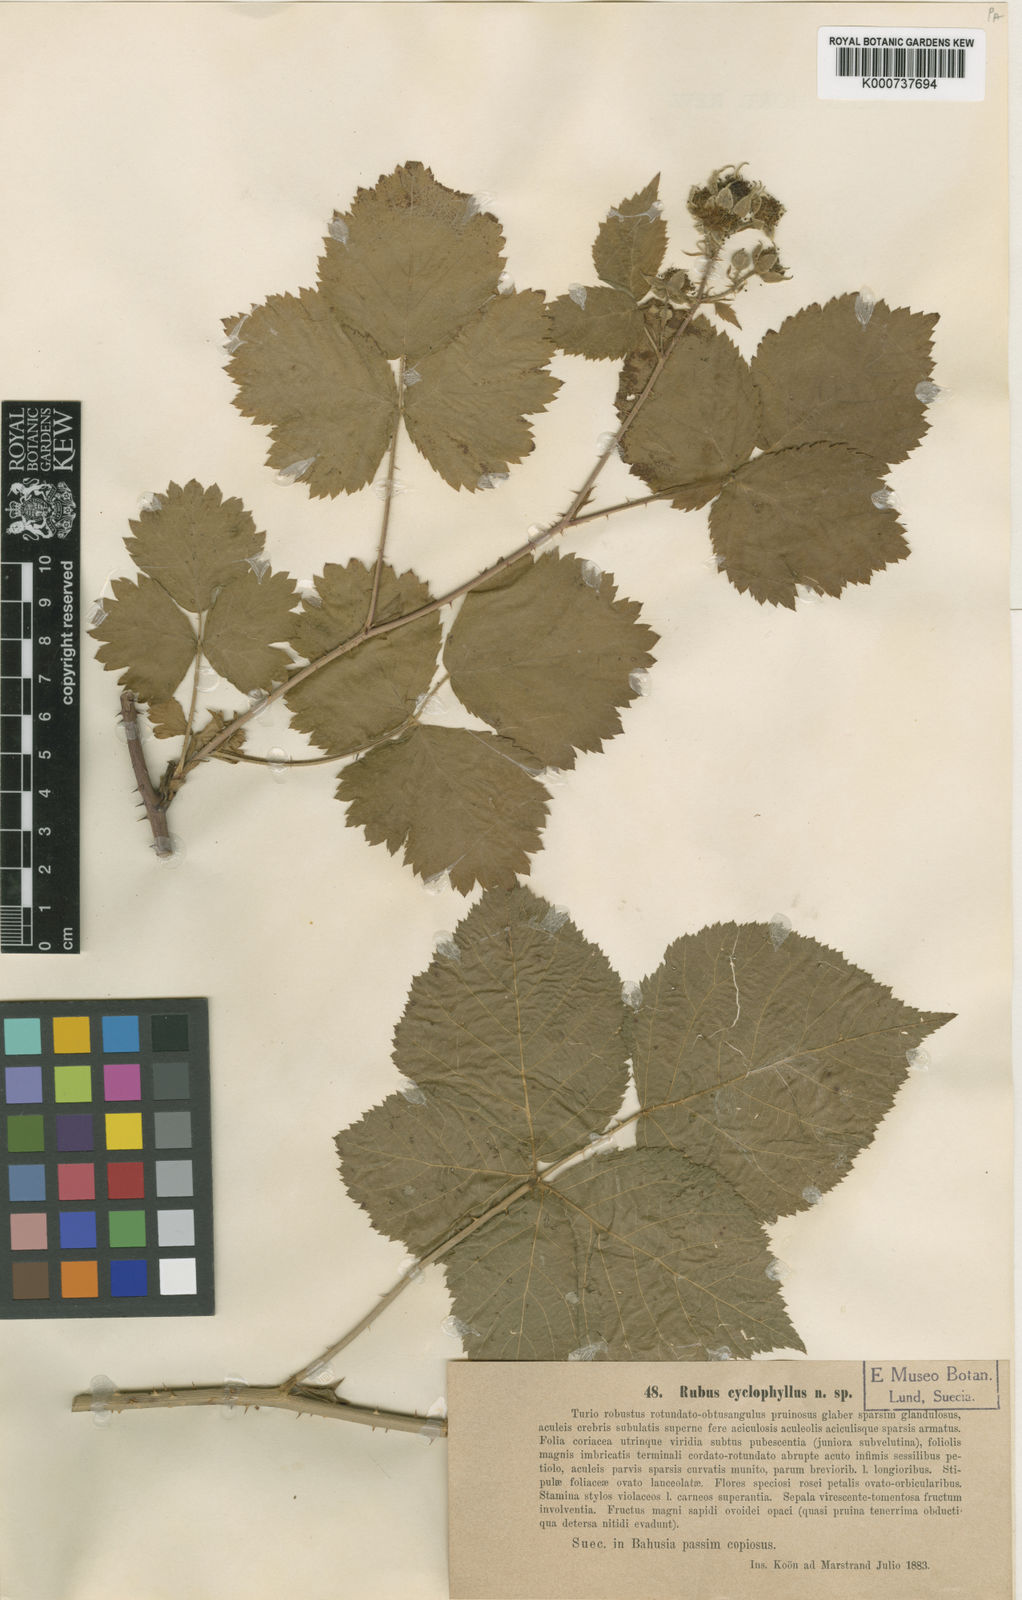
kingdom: Plantae
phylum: Tracheophyta
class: Magnoliopsida
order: Rosales
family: Rosaceae
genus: Rubus
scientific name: Rubus
